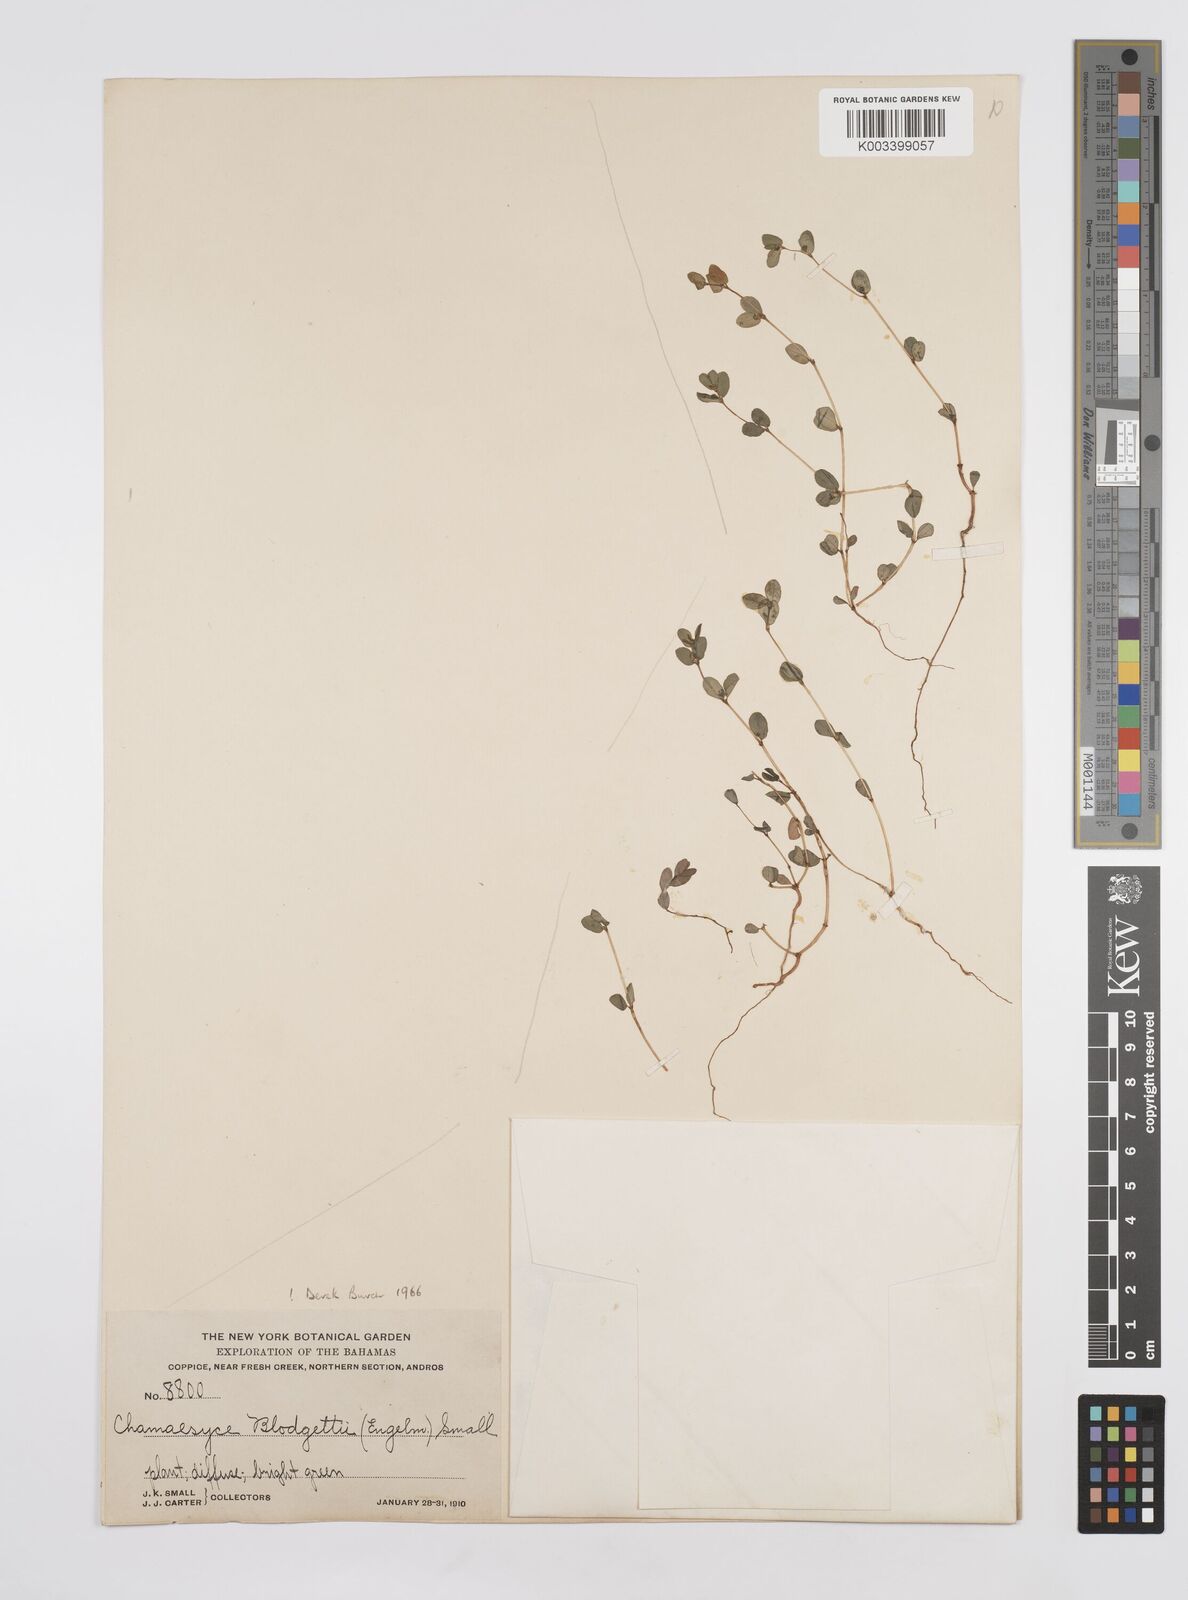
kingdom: Plantae
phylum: Tracheophyta
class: Magnoliopsida
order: Malpighiales
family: Euphorbiaceae
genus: Euphorbia
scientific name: Euphorbia blodgettii
